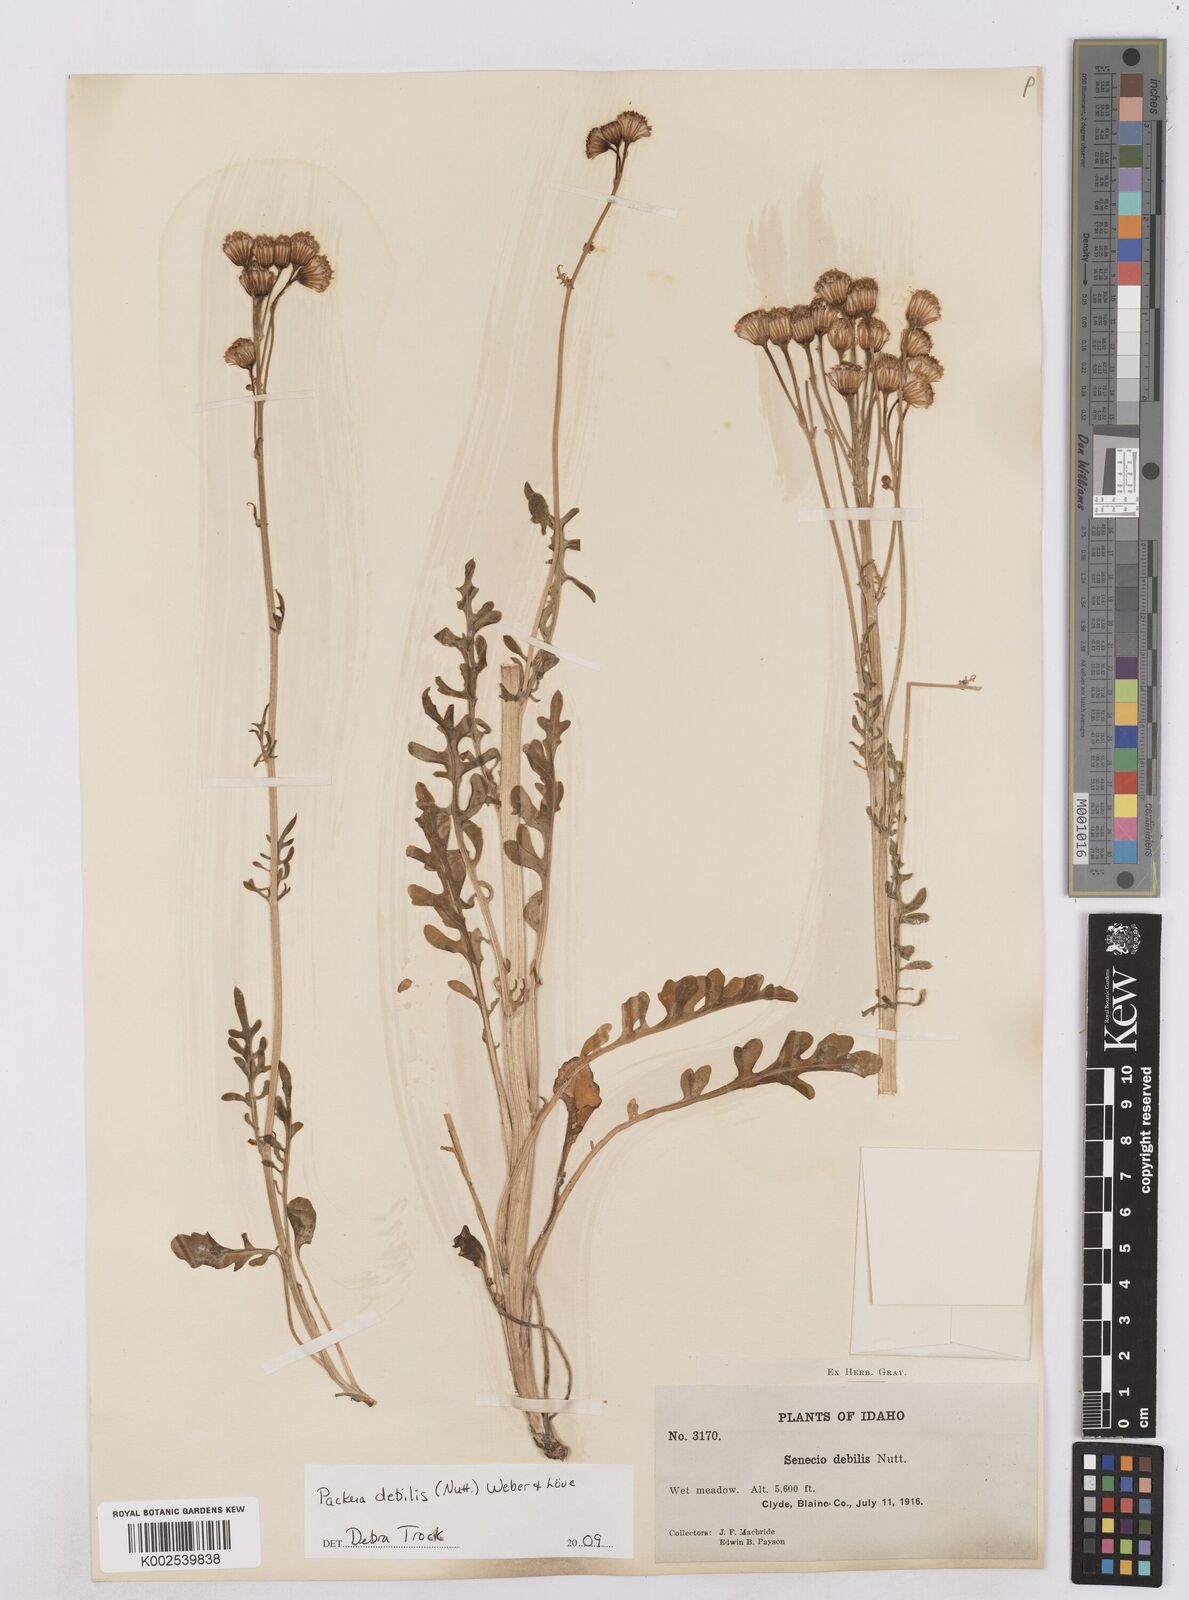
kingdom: Plantae
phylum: Tracheophyta
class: Magnoliopsida
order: Asterales
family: Asteraceae
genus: Packera
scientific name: Packera debilis
